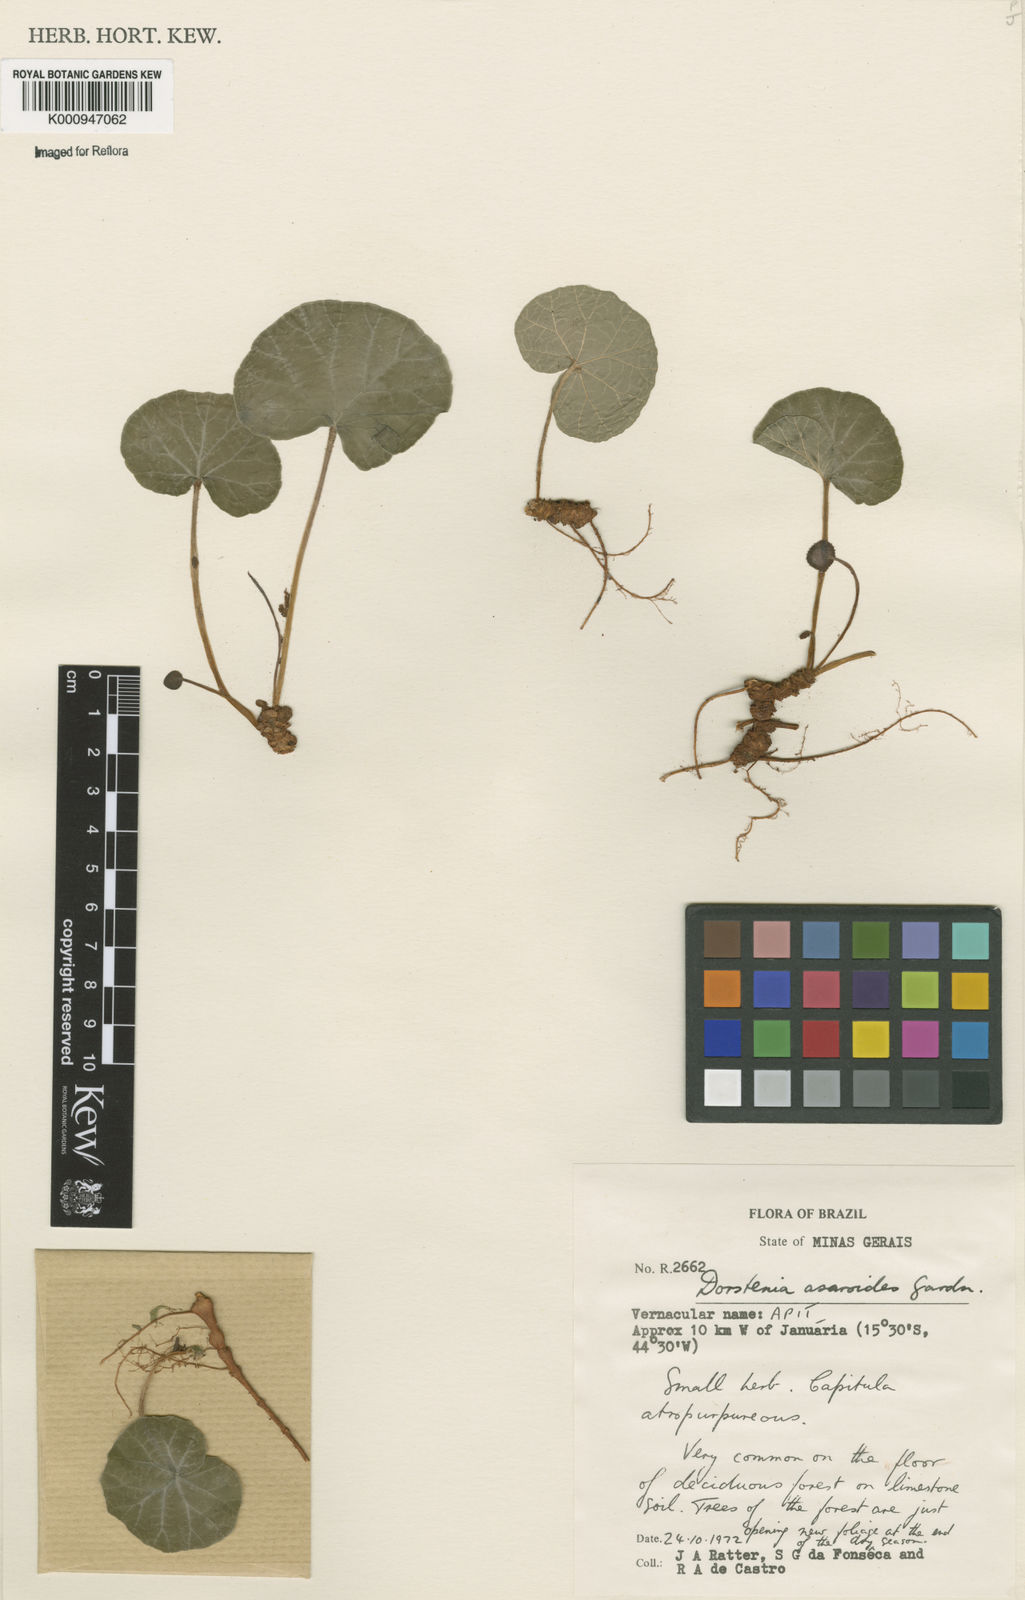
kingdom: Plantae
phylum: Tracheophyta
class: Magnoliopsida
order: Rosales
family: Moraceae
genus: Dorstenia
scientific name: Dorstenia
